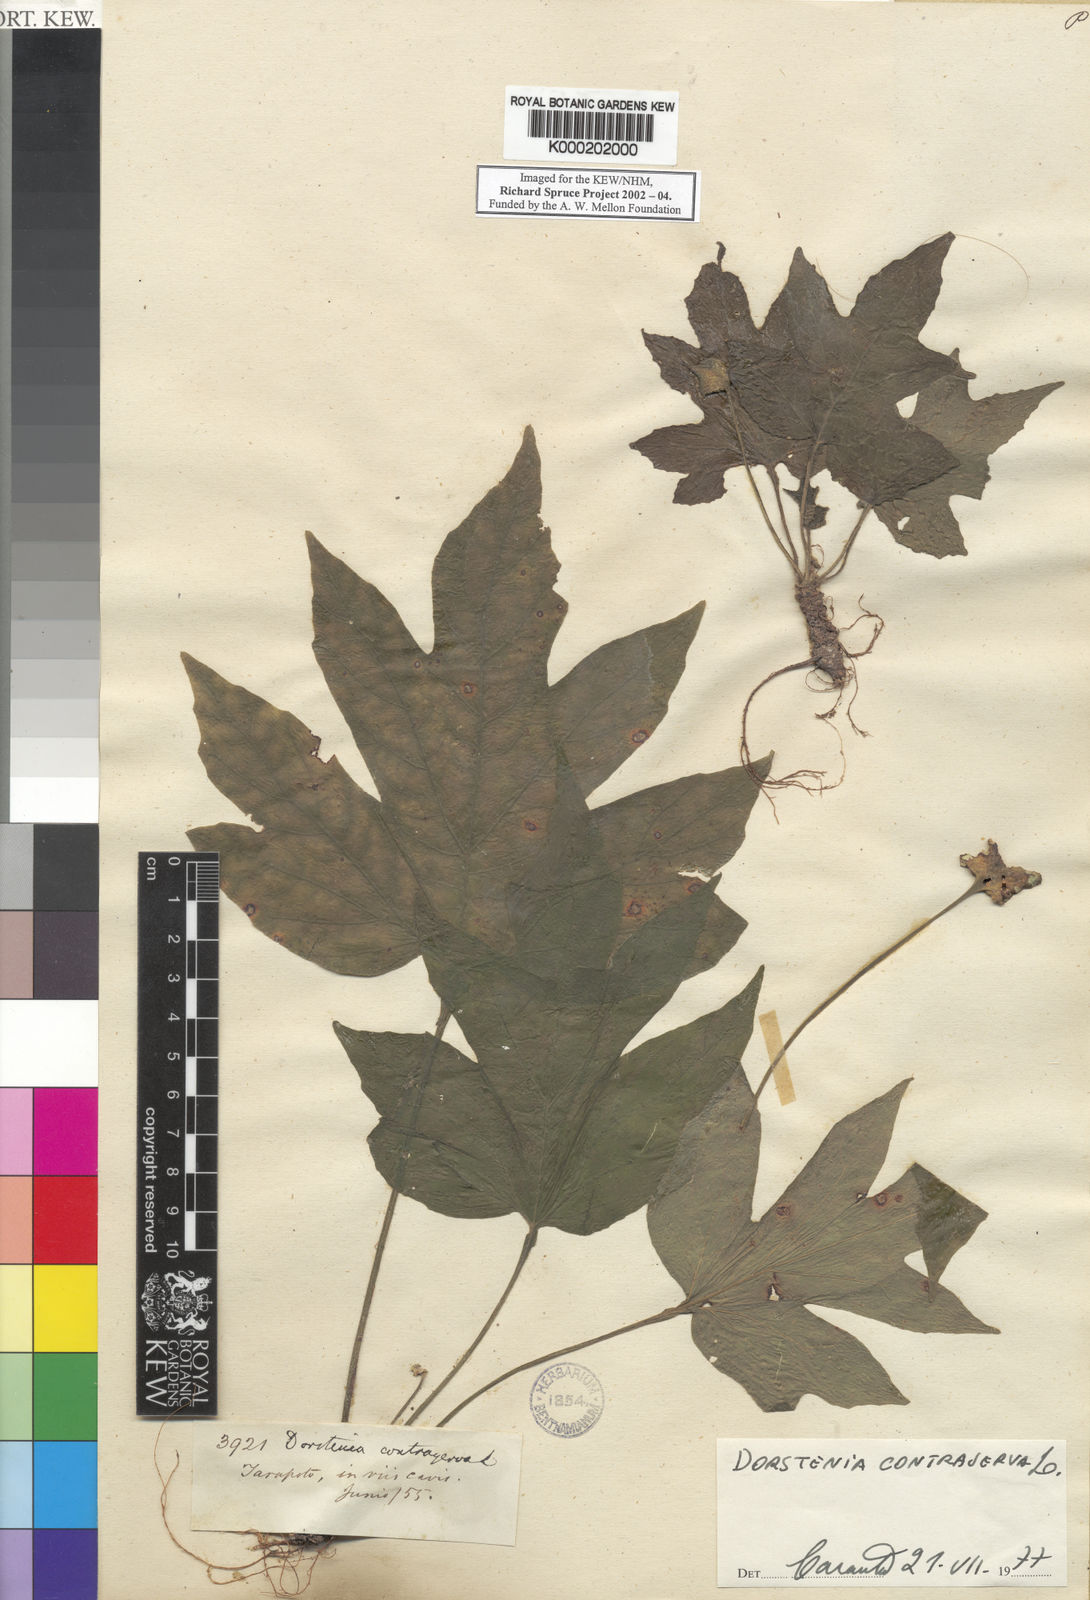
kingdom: Plantae
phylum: Tracheophyta
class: Magnoliopsida
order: Rosales
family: Moraceae
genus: Dorstenia
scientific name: Dorstenia contrajerva
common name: Tusilla
